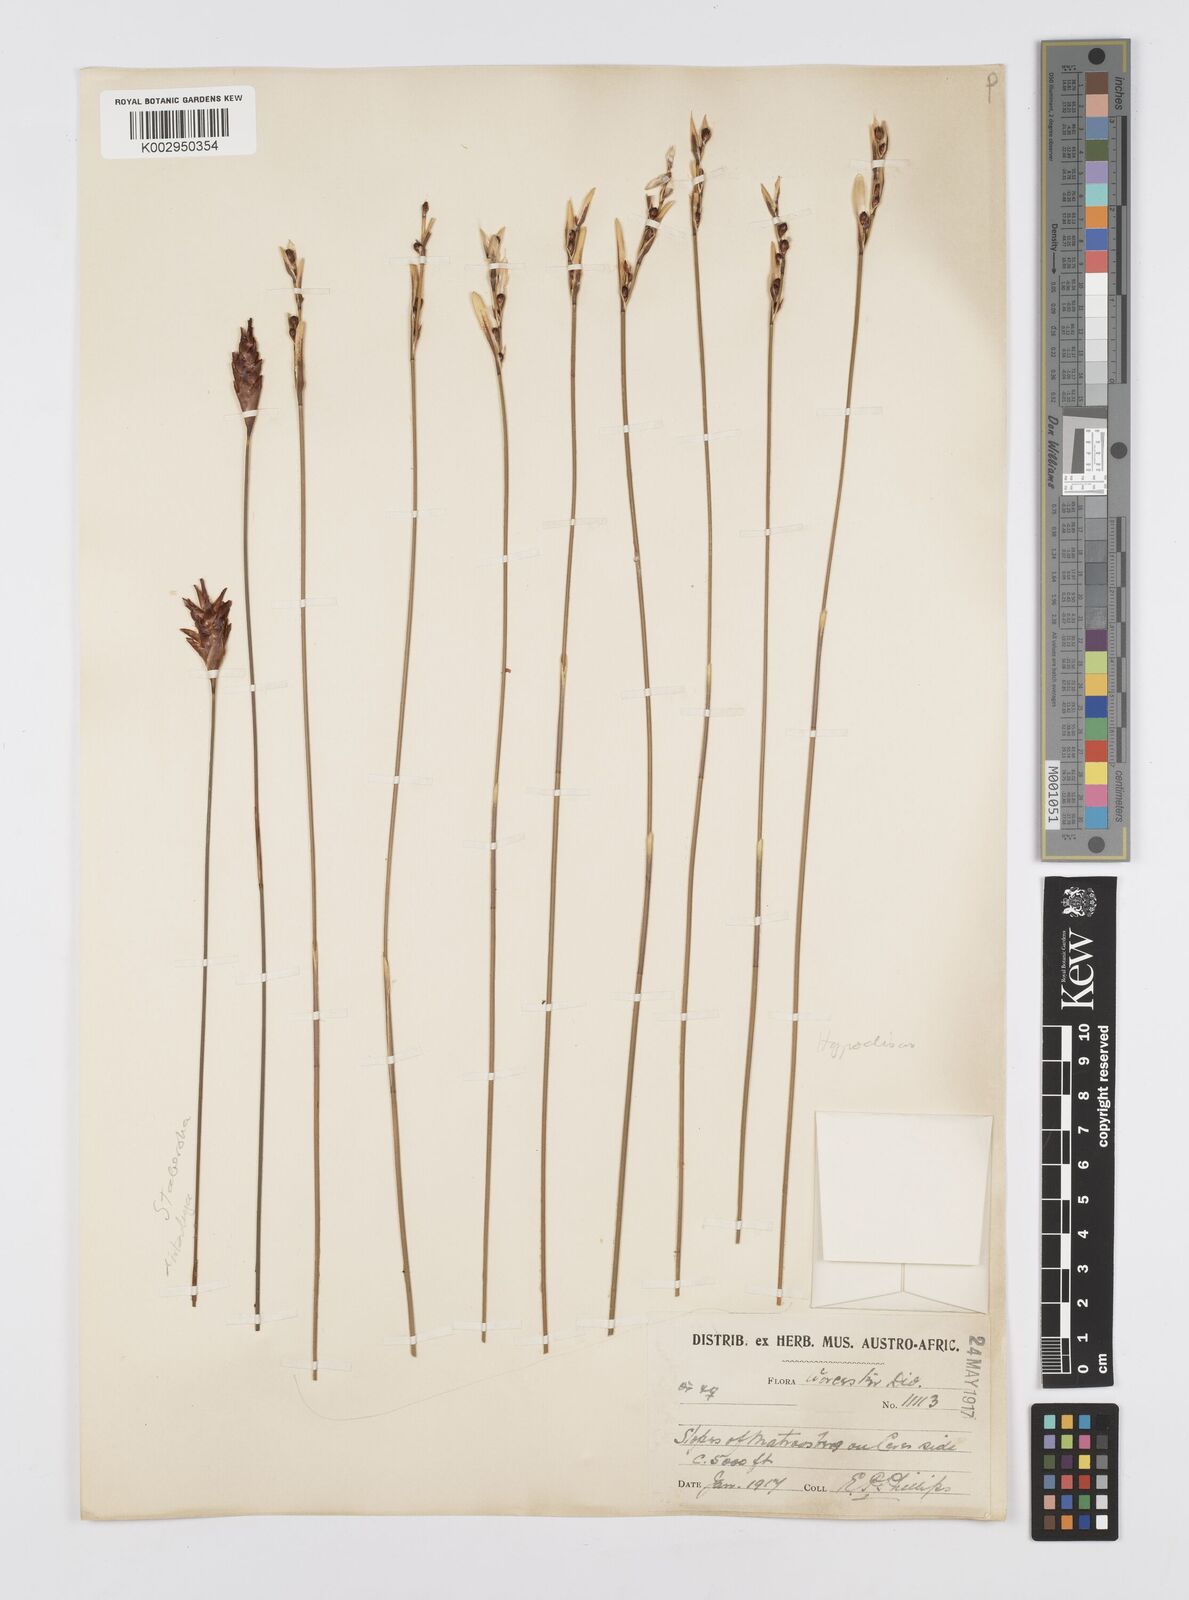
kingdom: Plantae
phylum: Tracheophyta
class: Liliopsida
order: Poales
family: Restionaceae
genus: Staberoha
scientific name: Staberoha distachyos
